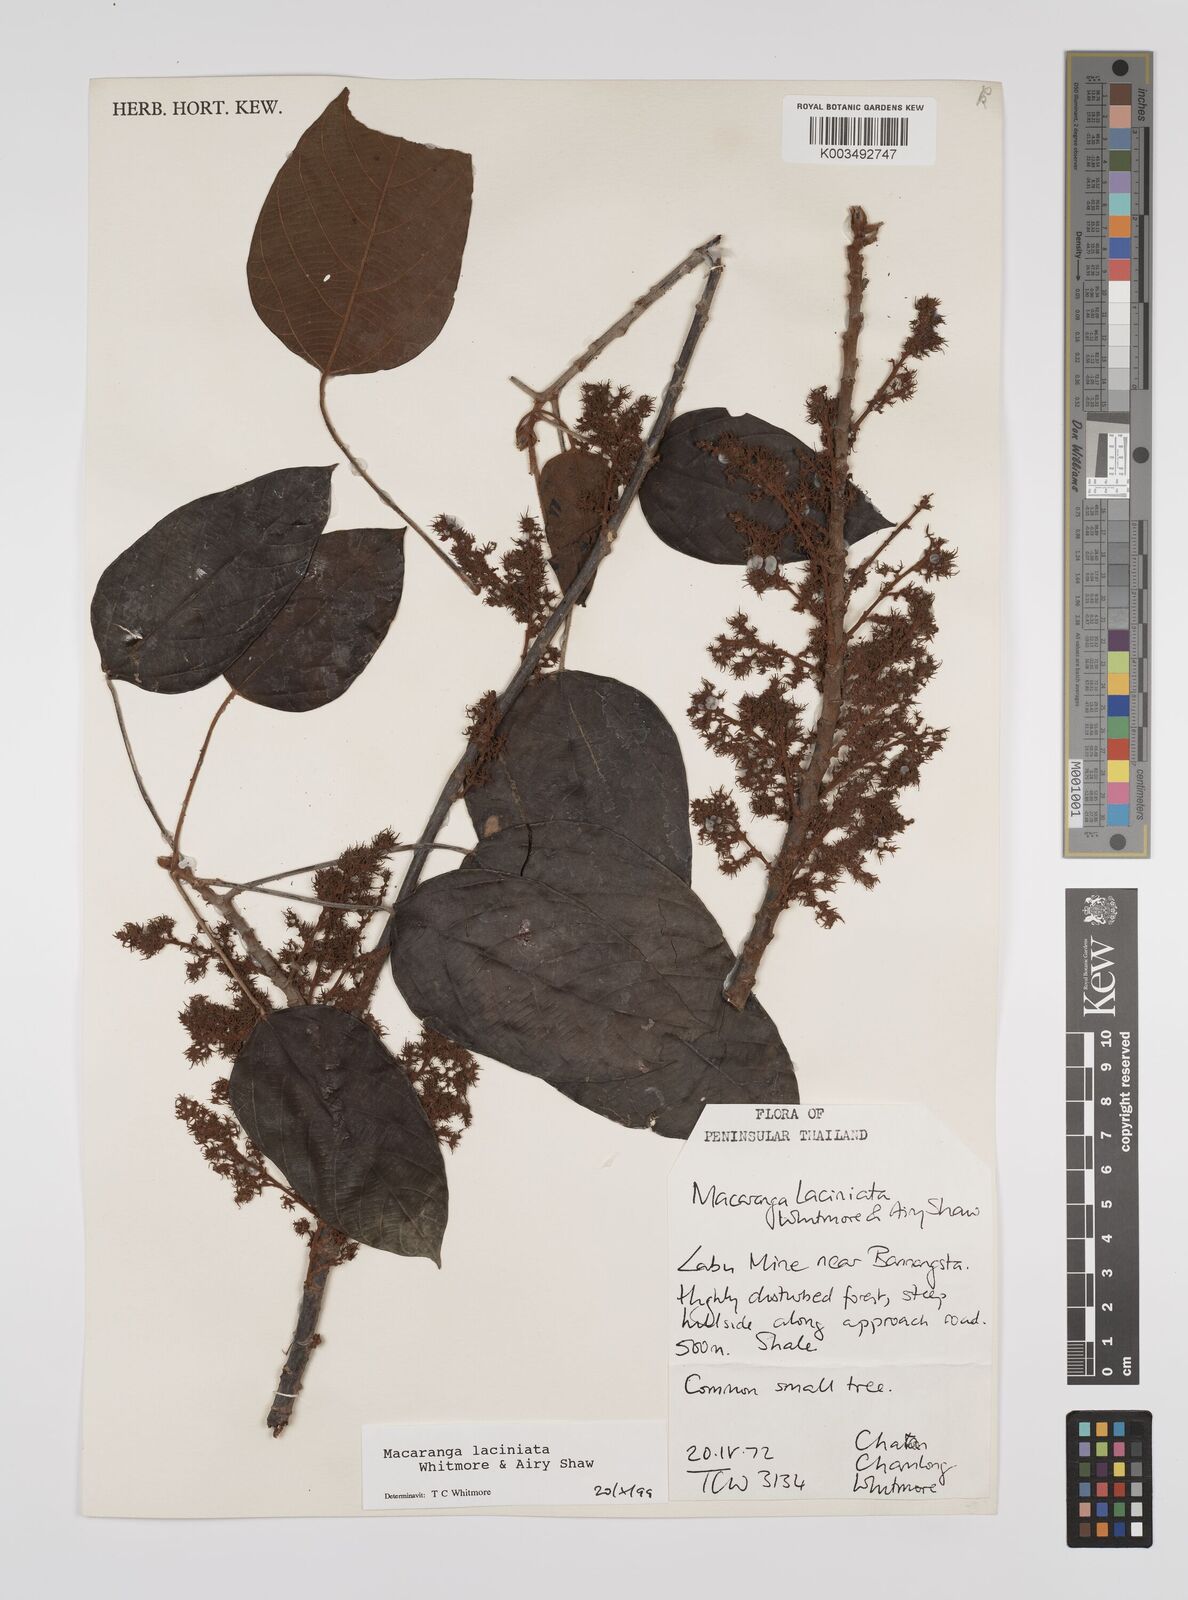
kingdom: Plantae
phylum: Tracheophyta
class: Magnoliopsida
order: Malpighiales
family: Euphorbiaceae
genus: Macaranga
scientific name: Macaranga laciniata
